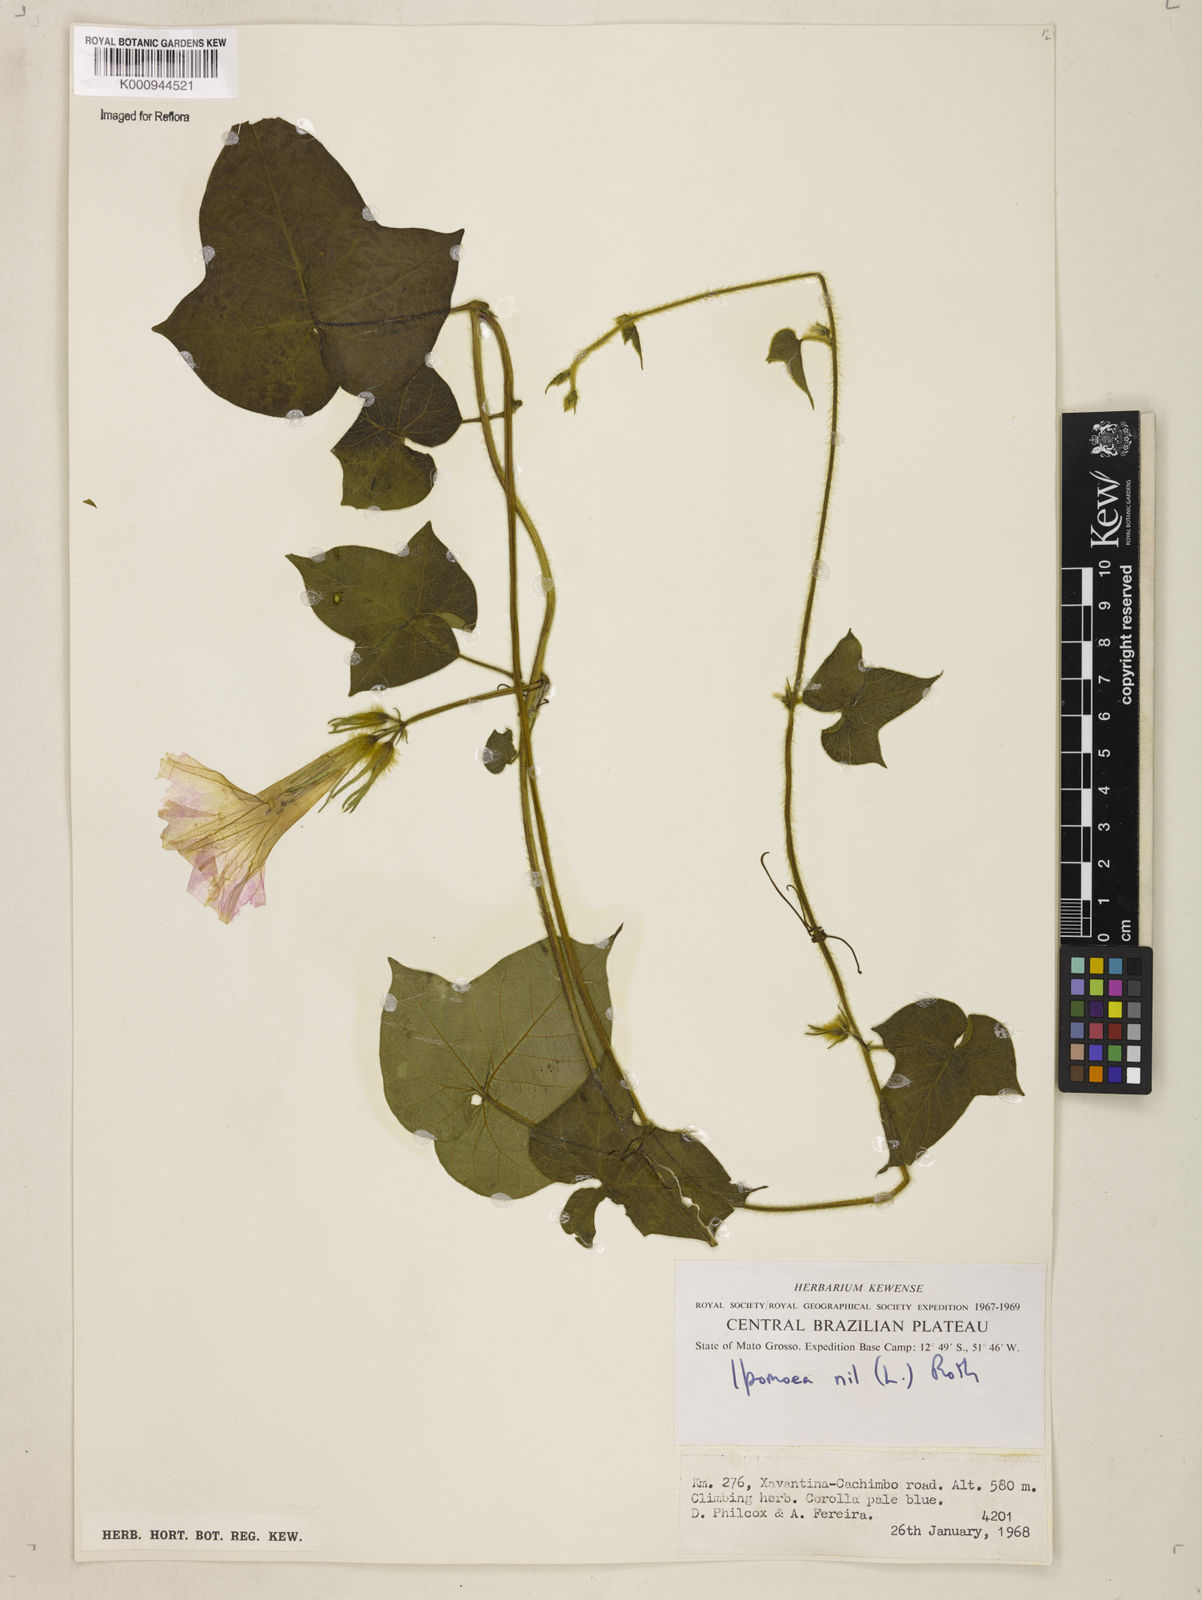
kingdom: Plantae
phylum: Tracheophyta
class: Magnoliopsida
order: Solanales
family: Convolvulaceae
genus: Ipomoea
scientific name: Ipomoea nil
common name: Japanese morning-glory
